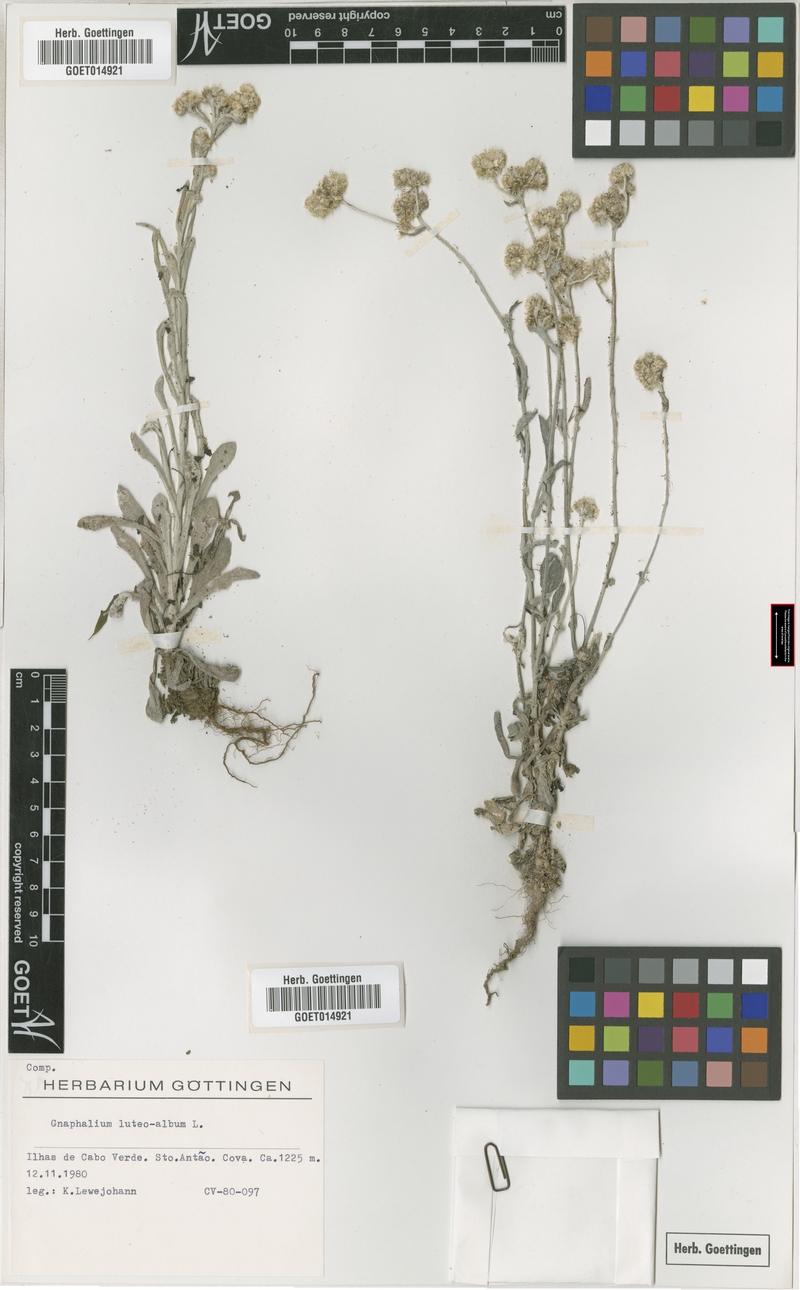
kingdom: Plantae
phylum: Tracheophyta
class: Magnoliopsida
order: Asterales
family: Asteraceae
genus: Helichrysum
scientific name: Helichrysum luteoalbum
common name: Daisy
